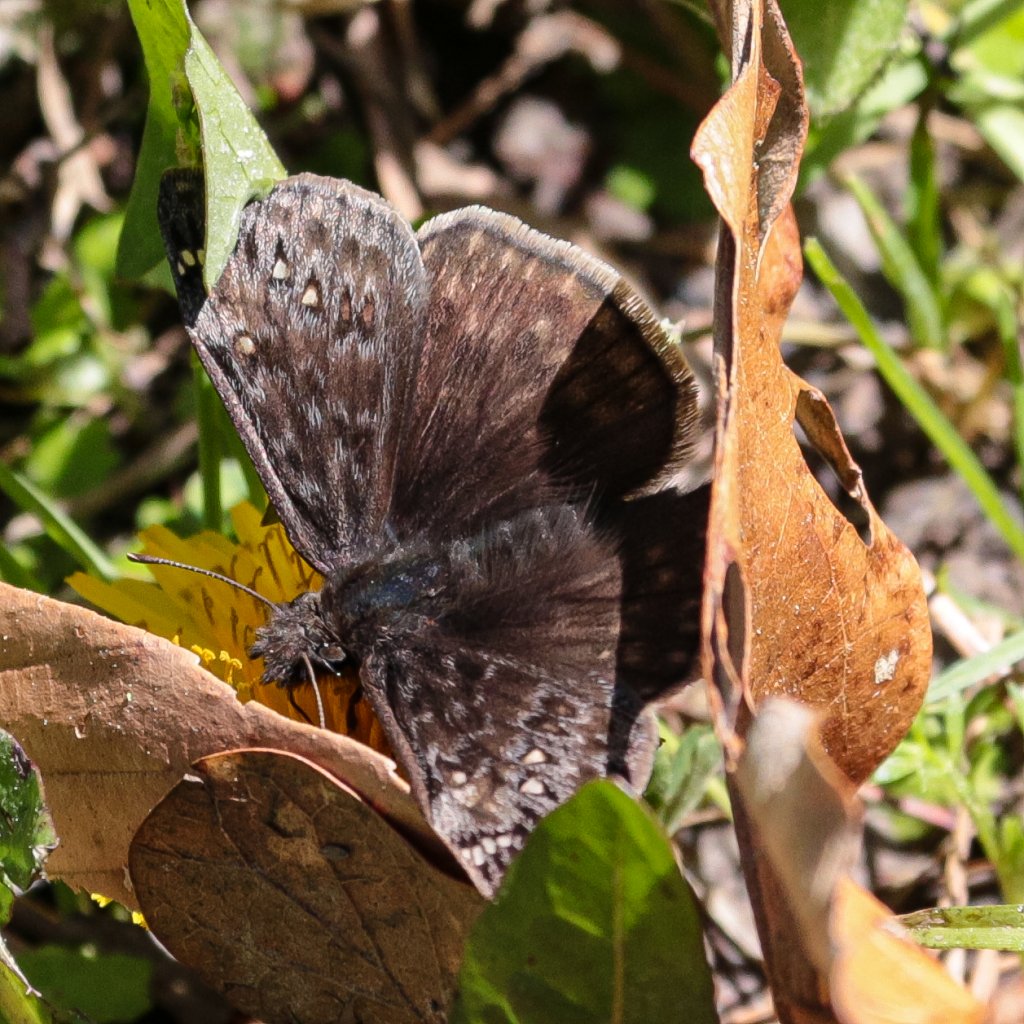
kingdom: Animalia
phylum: Arthropoda
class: Insecta
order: Lepidoptera
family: Hesperiidae
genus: Gesta
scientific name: Gesta
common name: Juvenal's Duskywing
